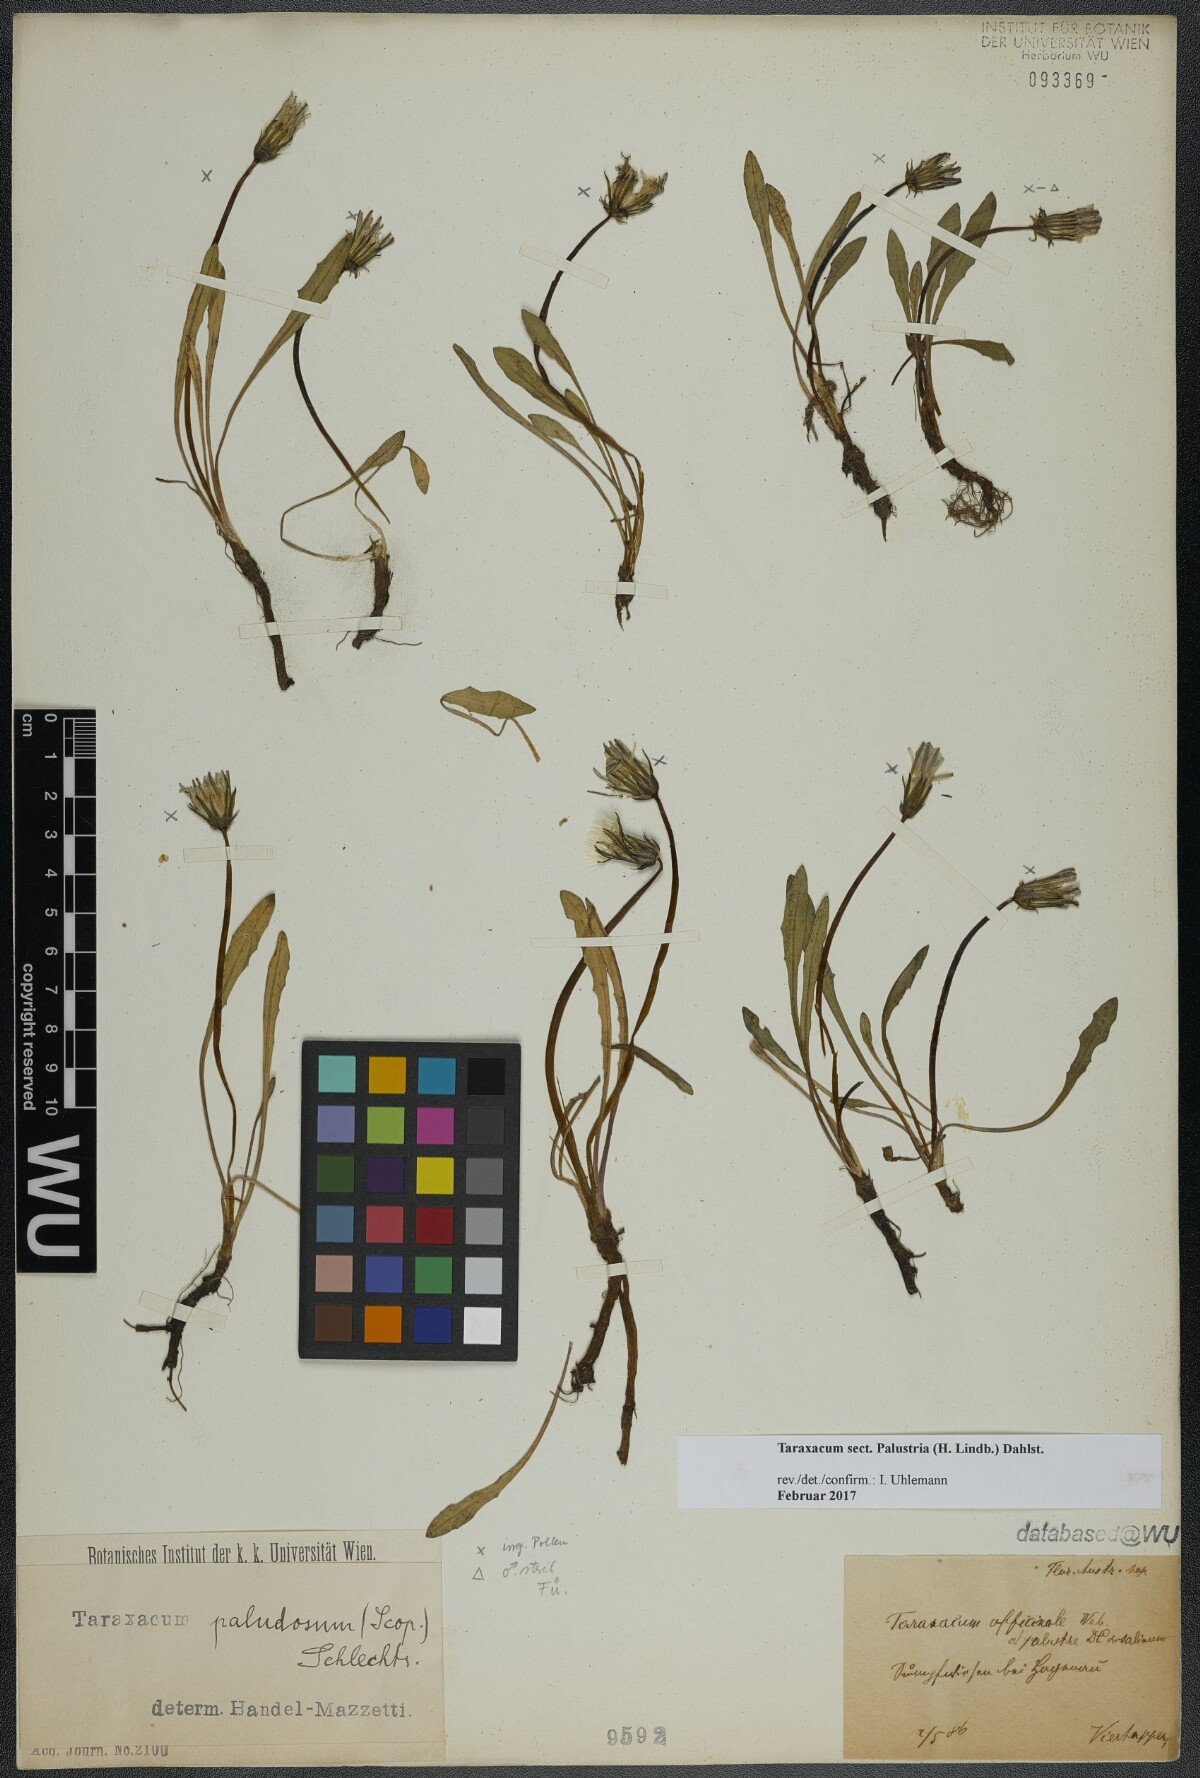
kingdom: Plantae
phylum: Tracheophyta
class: Magnoliopsida
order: Asterales
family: Asteraceae
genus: Taraxacum
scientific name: Taraxacum
